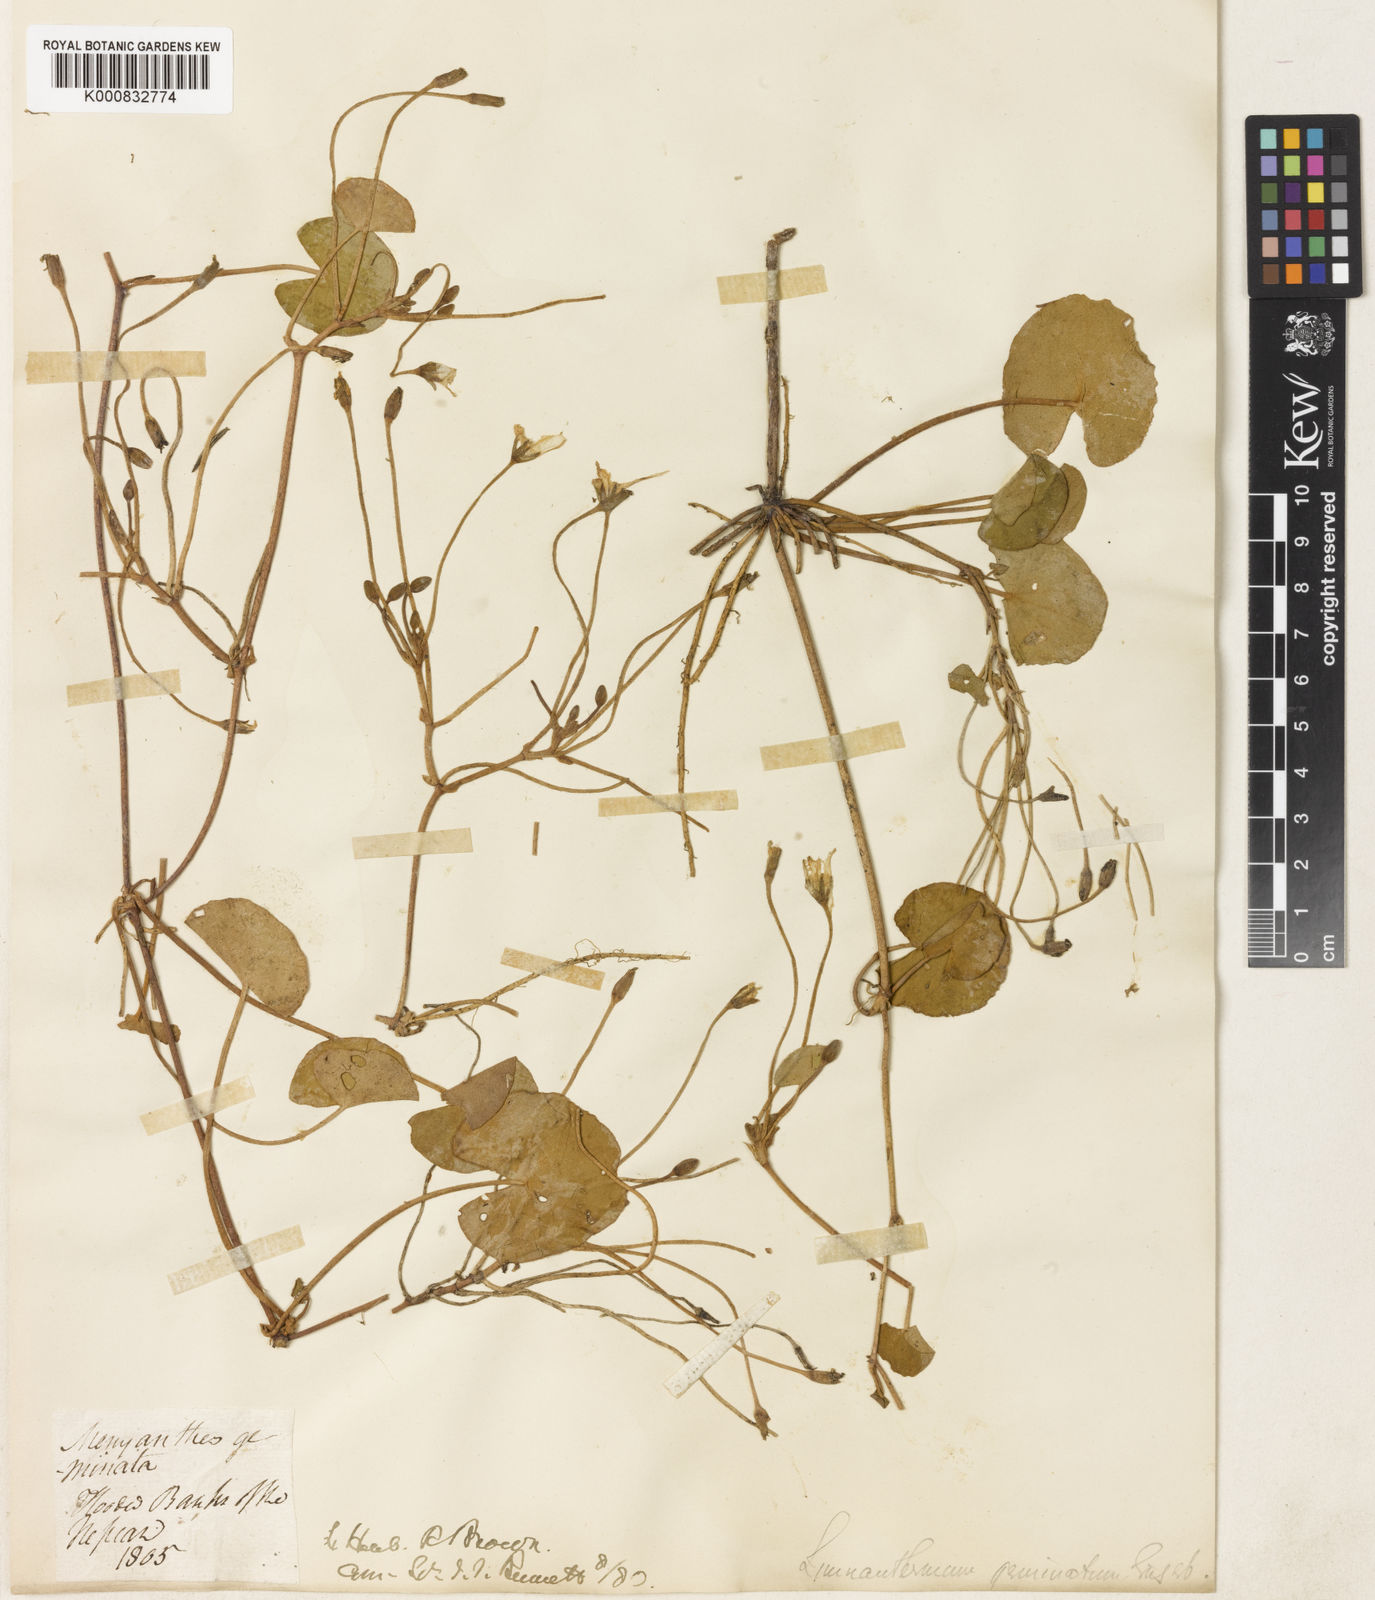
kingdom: Plantae
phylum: Tracheophyta
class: Magnoliopsida
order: Asterales
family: Menyanthaceae
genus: Nymphoides
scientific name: Nymphoides geminata
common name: Entire marshwort
